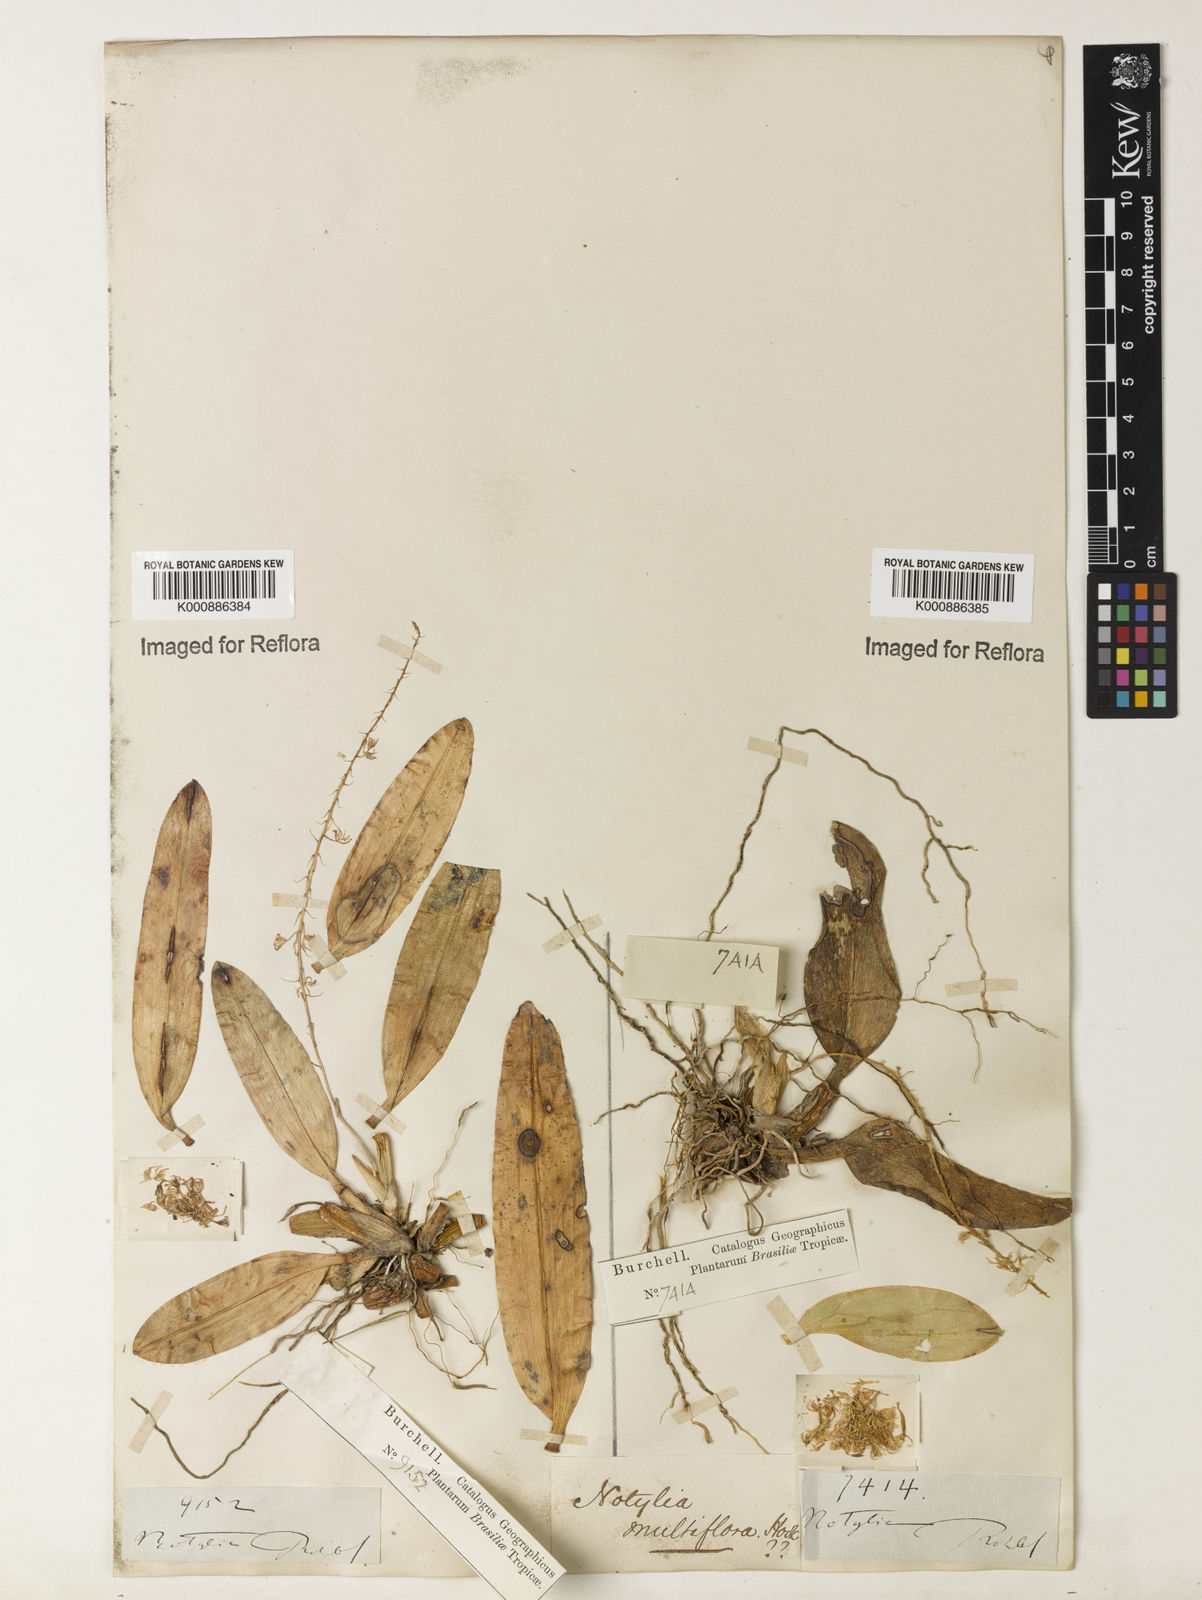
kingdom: Plantae
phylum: Tracheophyta
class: Liliopsida
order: Asparagales
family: Orchidaceae
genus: Notylia
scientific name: Notylia sagittifera
